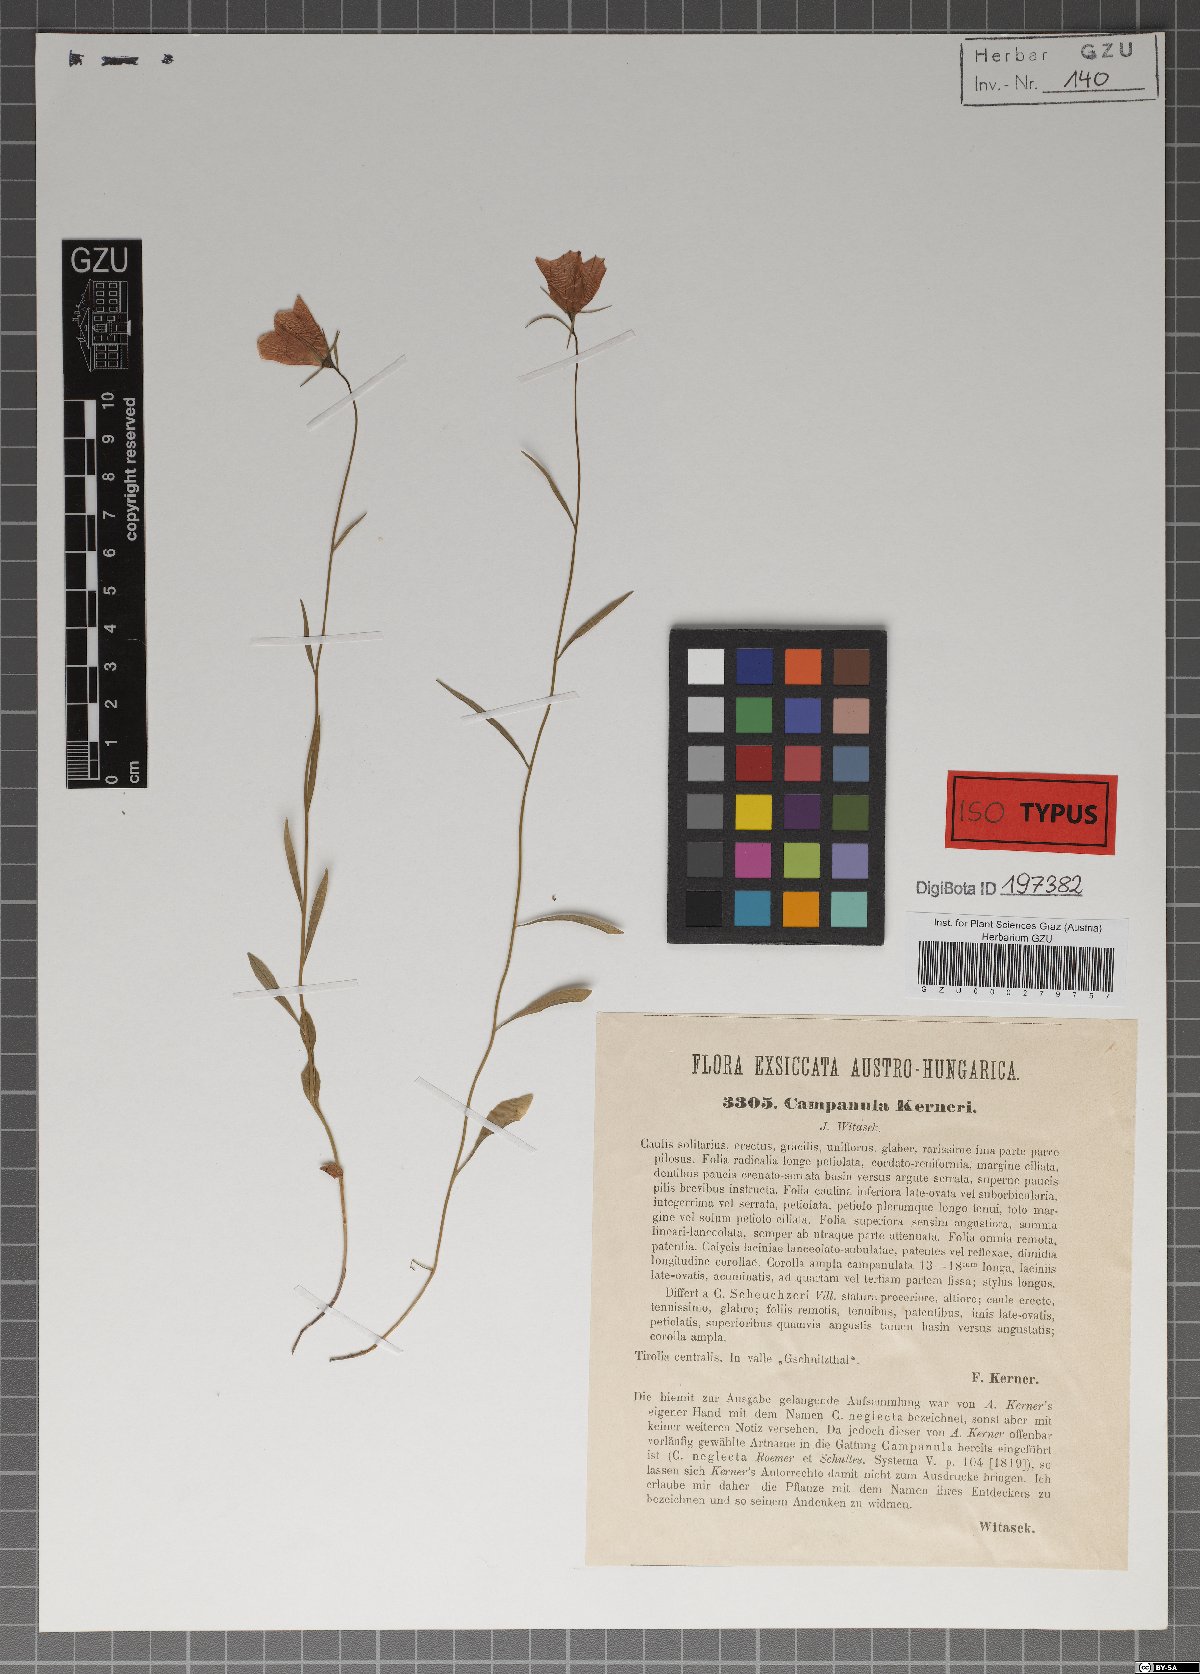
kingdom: Plantae
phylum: Tracheophyta
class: Magnoliopsida
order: Asterales
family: Campanulaceae
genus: Campanula
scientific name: Campanula scheuchzeri
